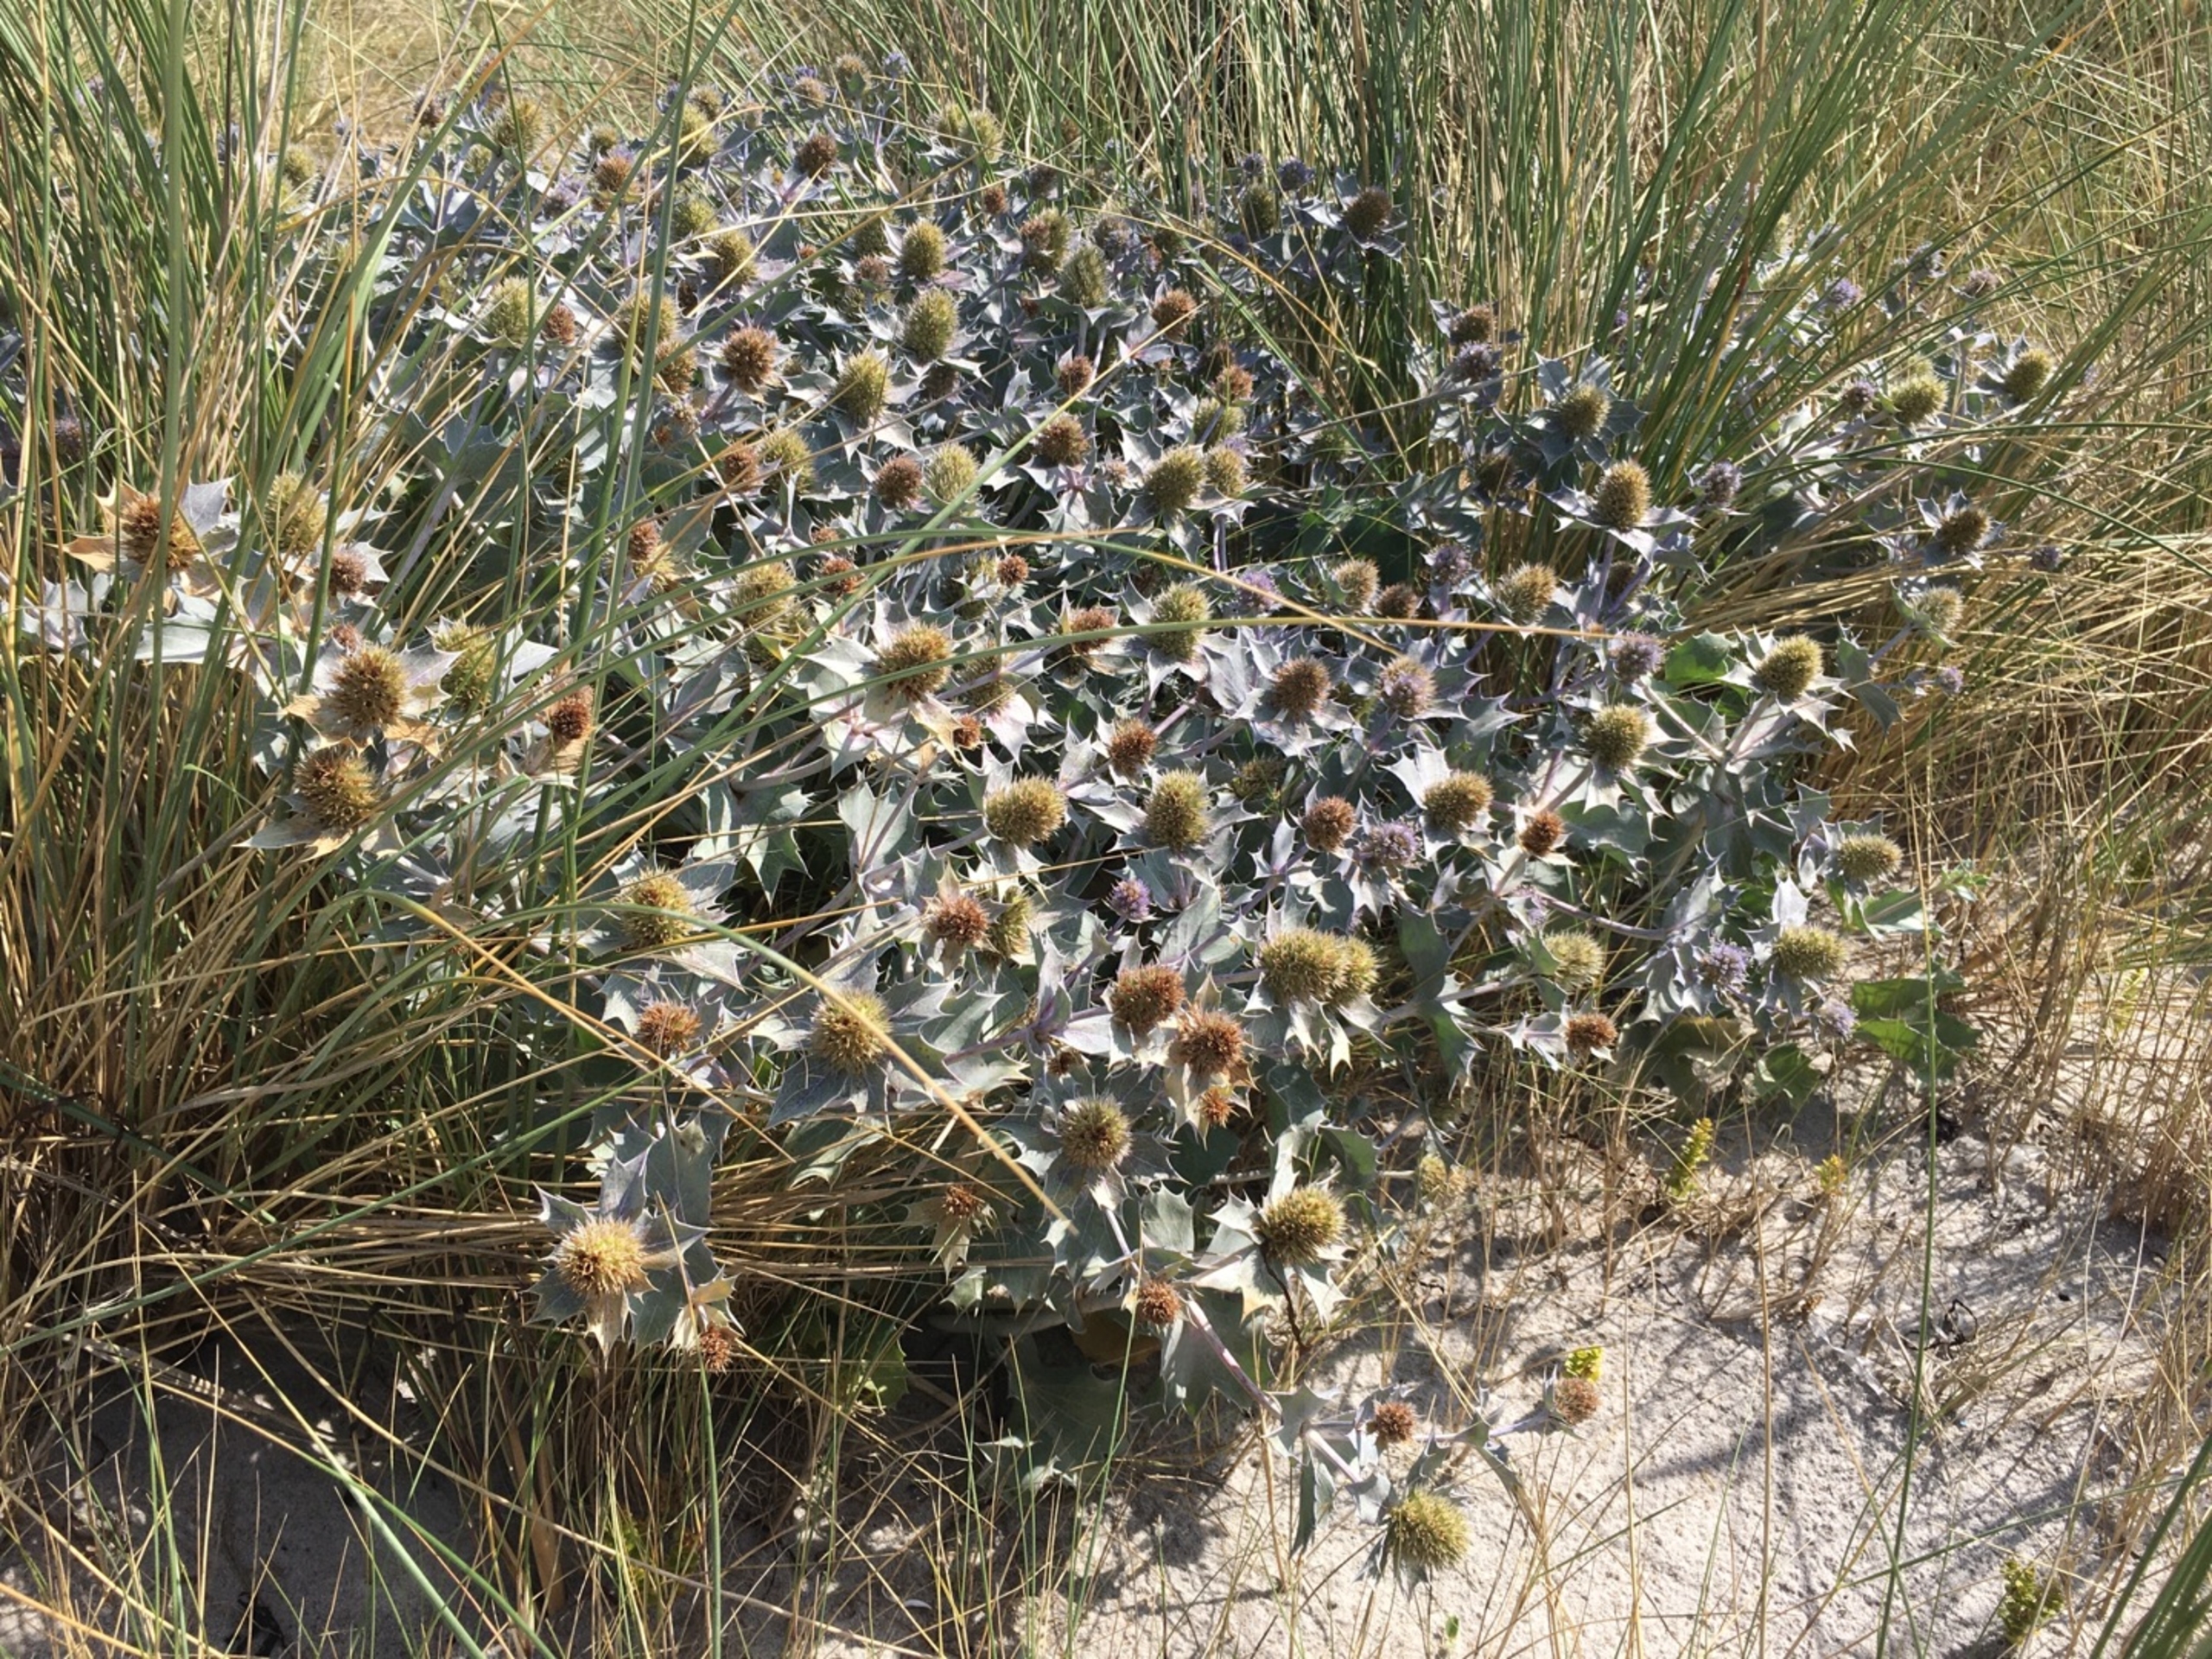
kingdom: Plantae
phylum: Tracheophyta
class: Magnoliopsida
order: Apiales
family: Apiaceae
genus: Eryngium
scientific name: Eryngium maritimum
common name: Strand-mandstro
